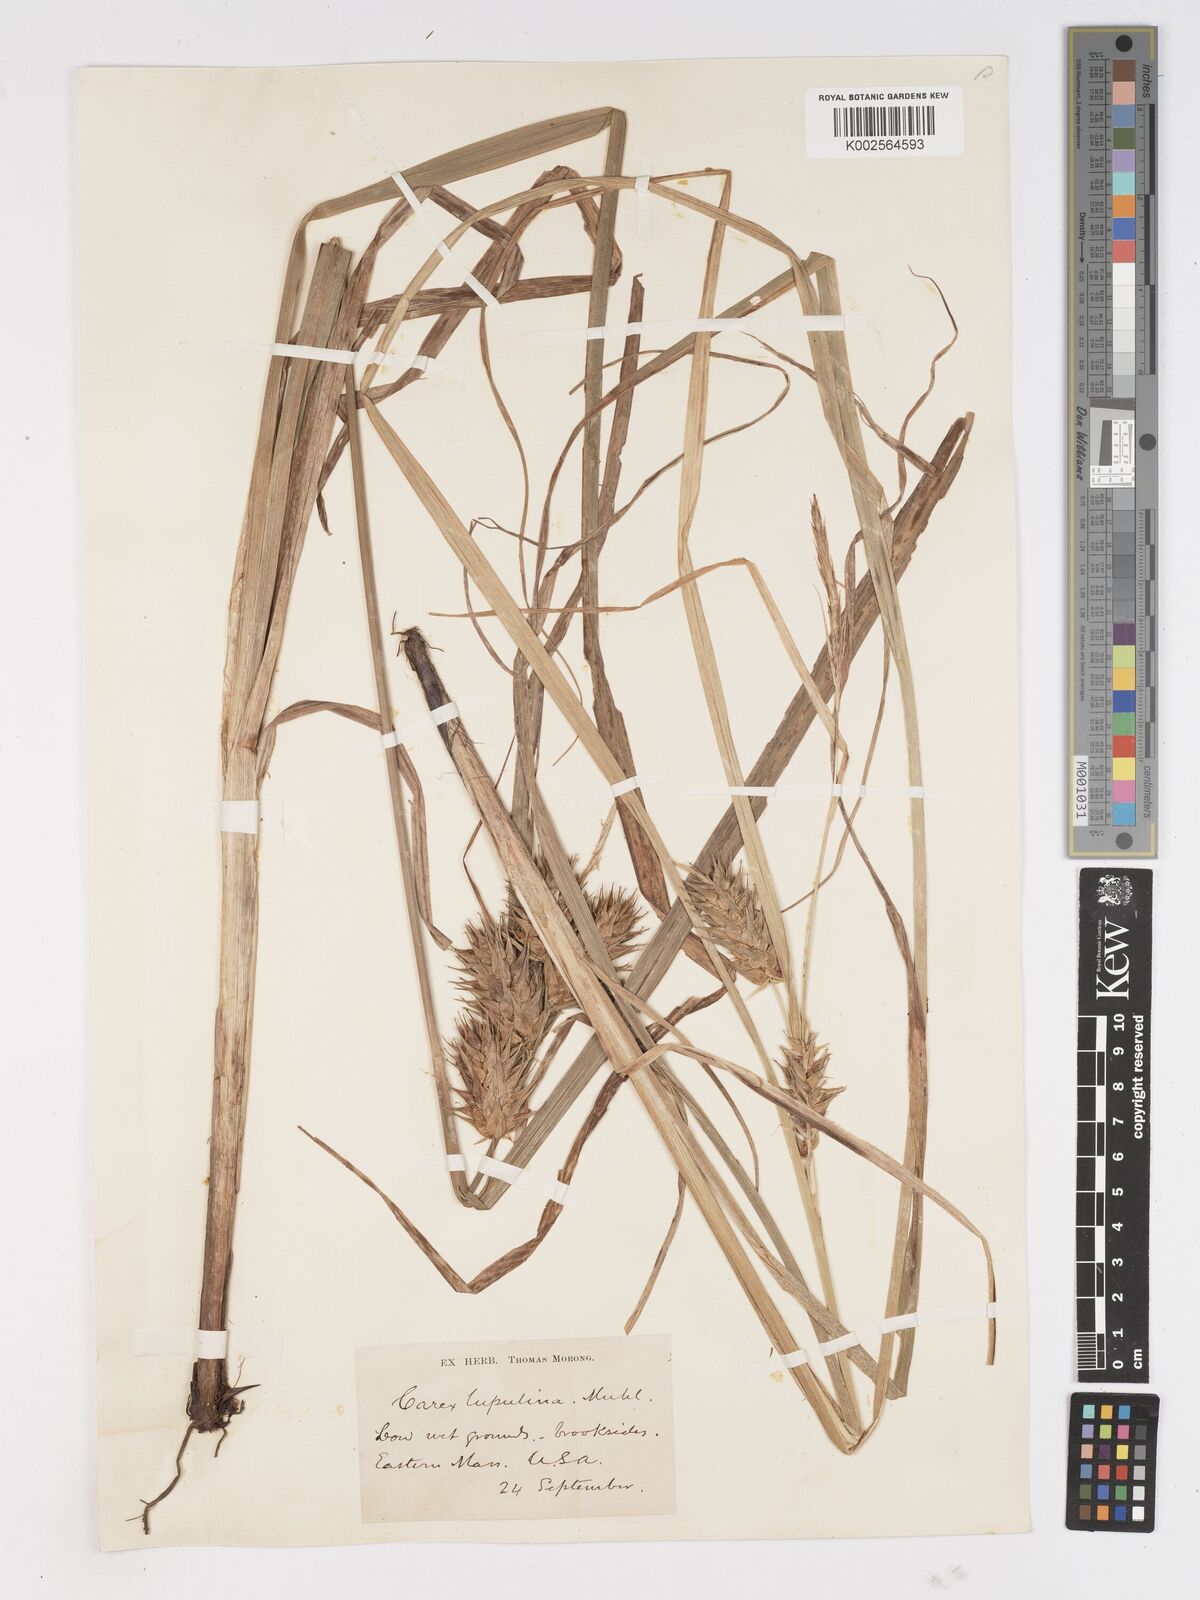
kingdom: Plantae
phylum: Tracheophyta
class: Liliopsida
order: Poales
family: Cyperaceae
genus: Carex
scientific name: Carex lupulina
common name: Hop sedge
